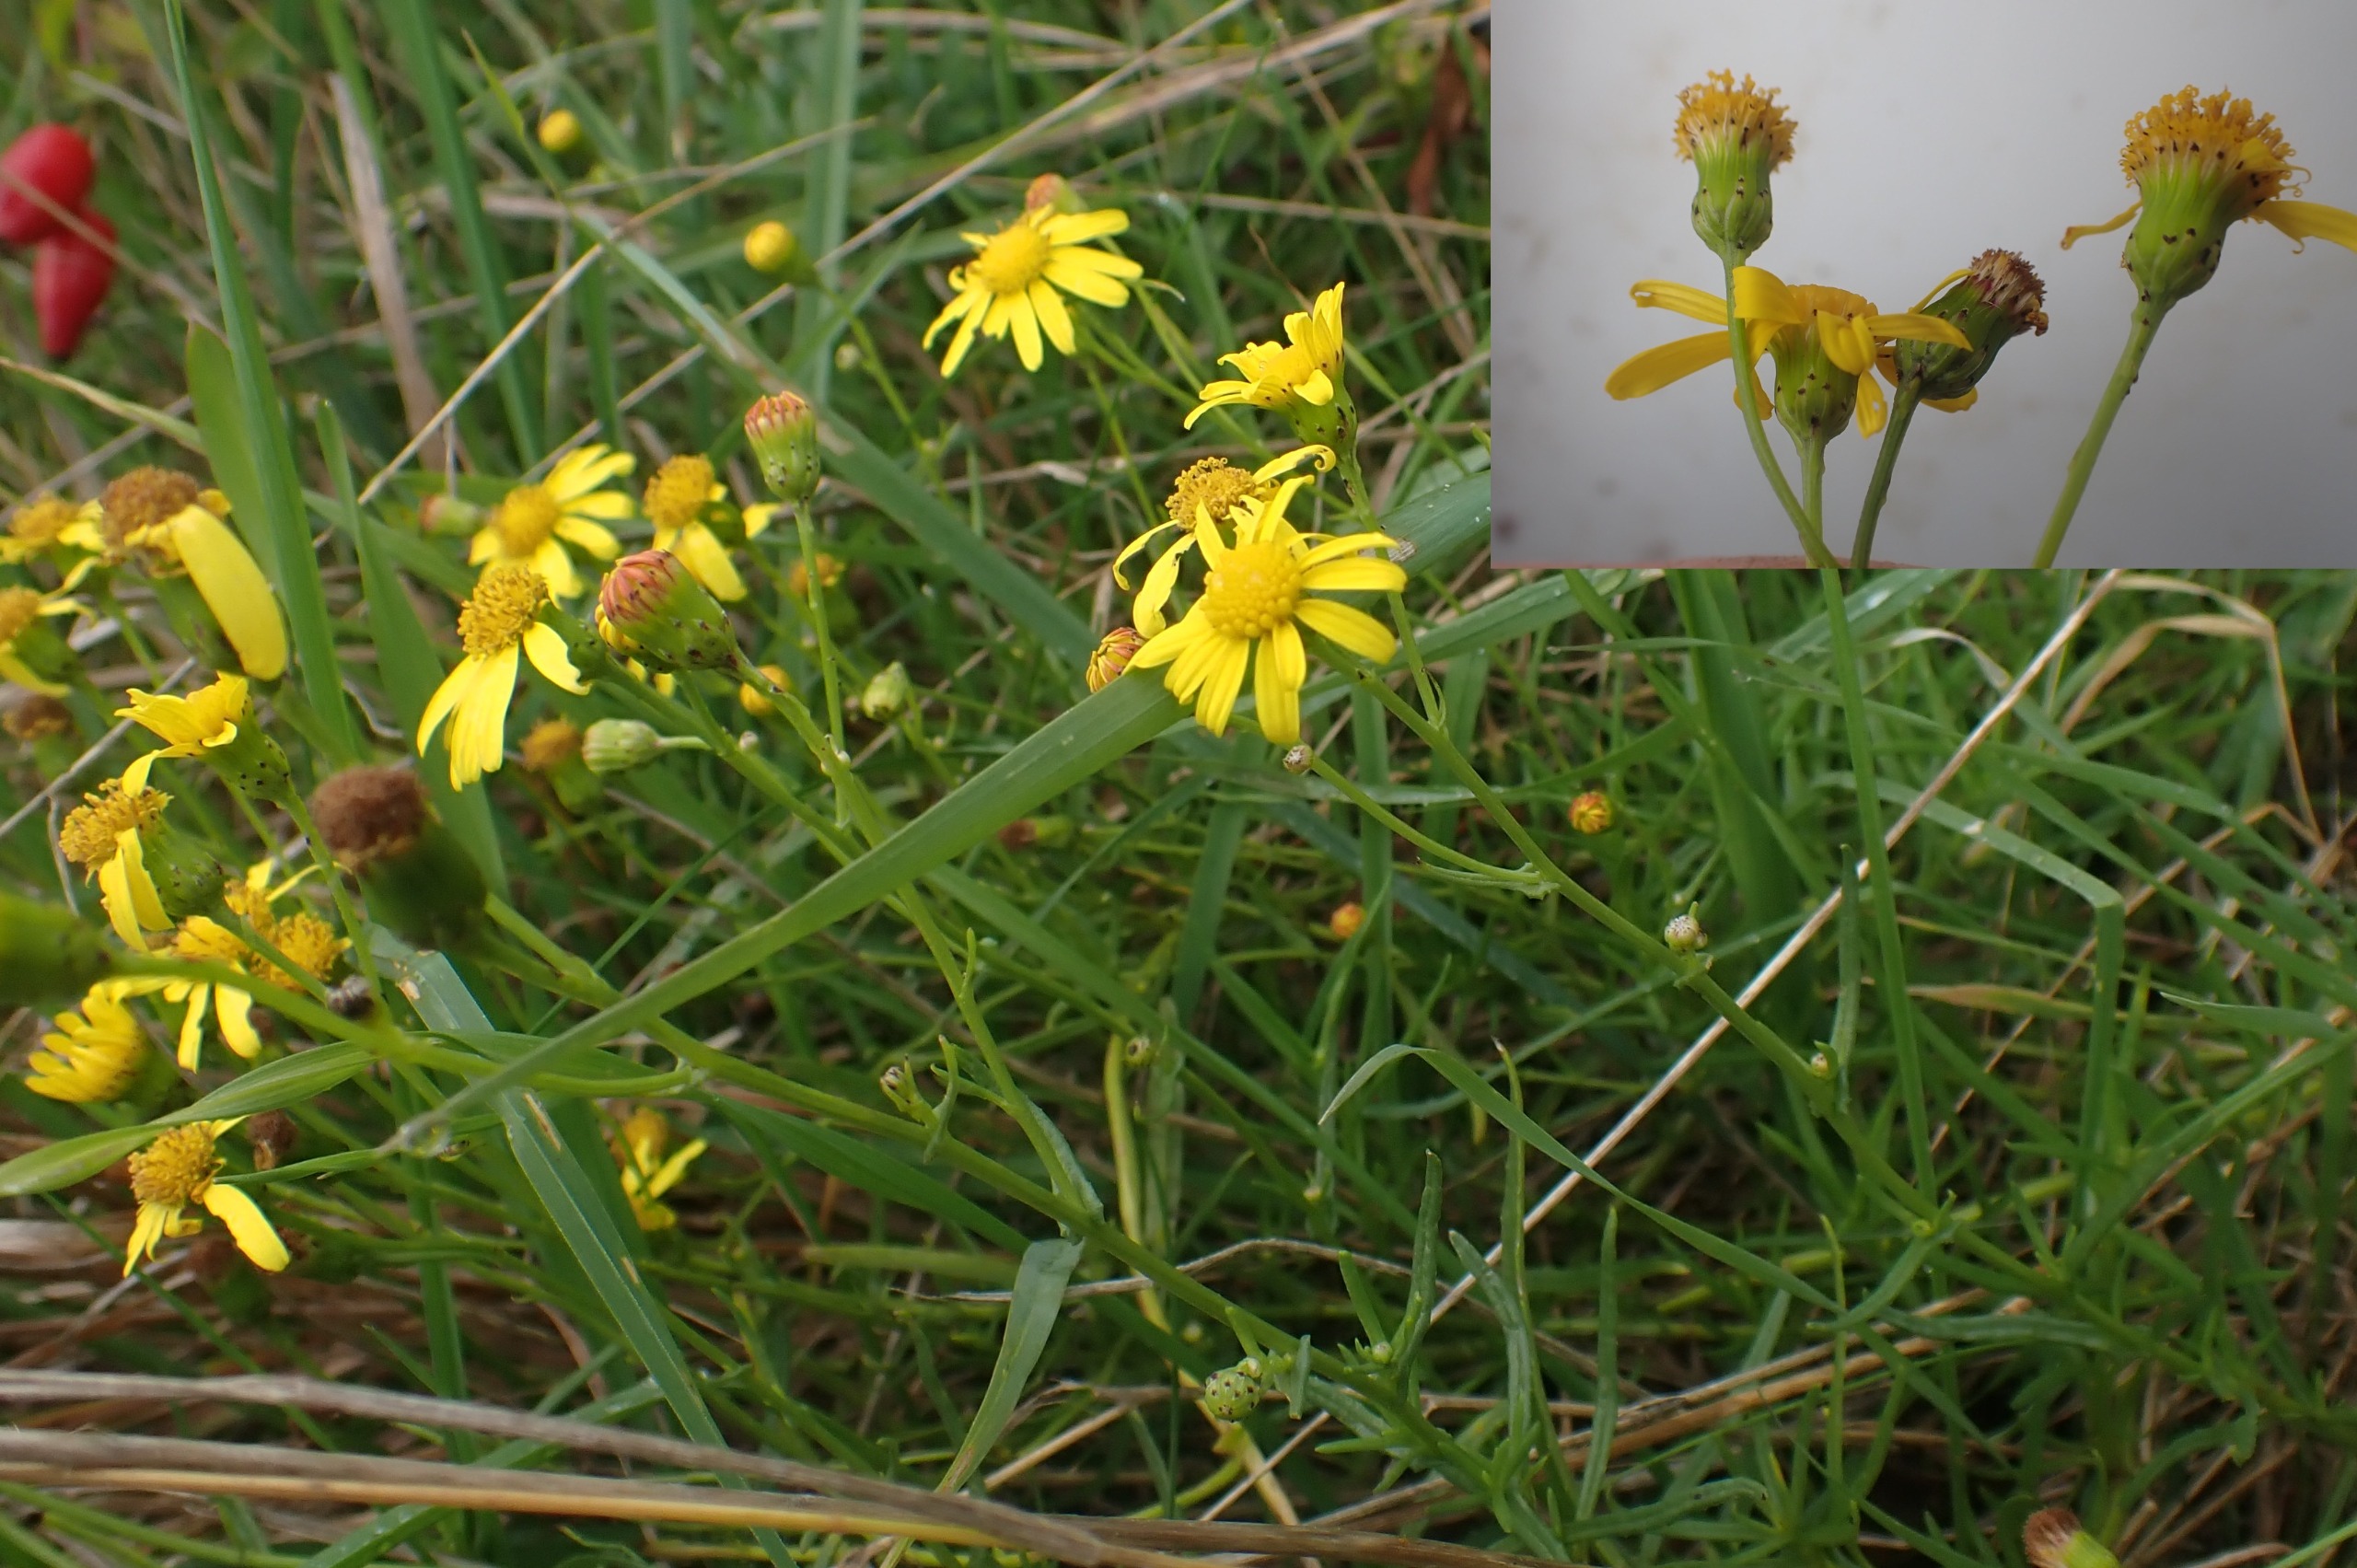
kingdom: Plantae
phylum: Tracheophyta
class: Magnoliopsida
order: Asterales
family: Asteraceae
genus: Senecio
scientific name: Senecio inaequidens
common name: Smalbladet brandbæger
